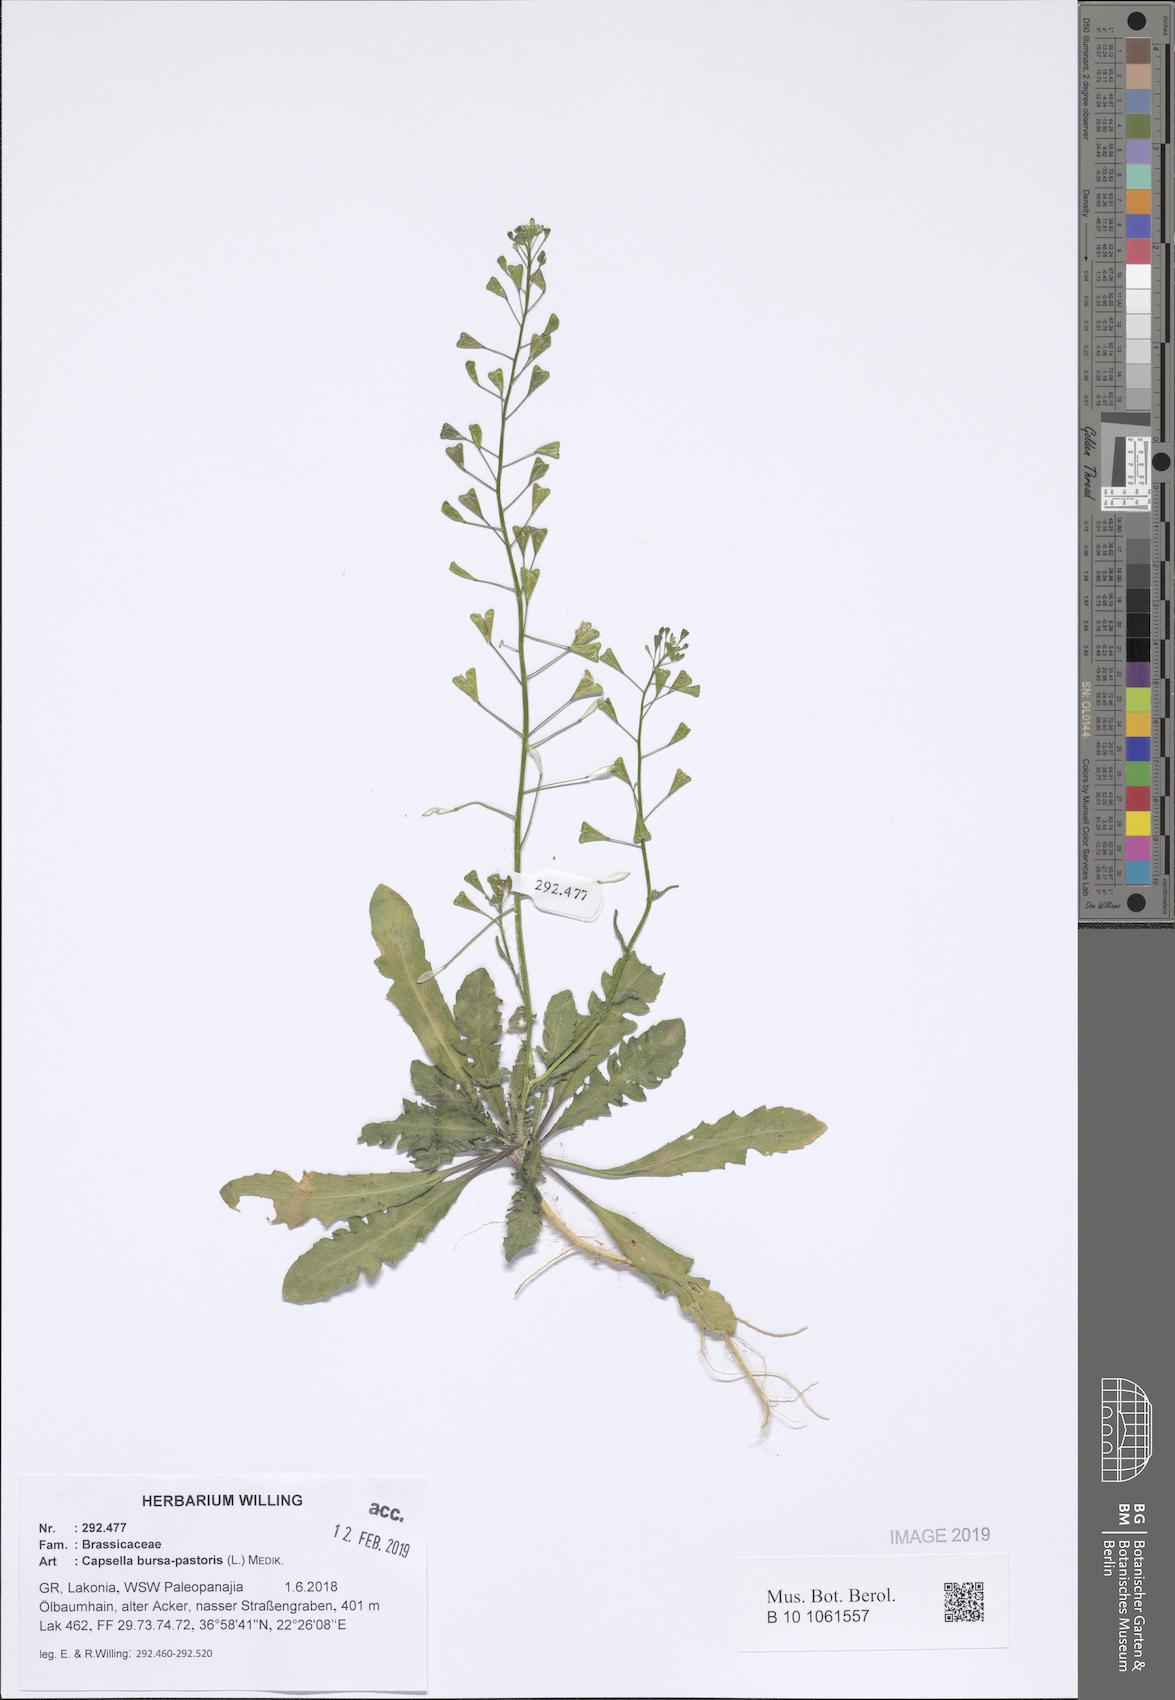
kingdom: Plantae
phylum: Tracheophyta
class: Magnoliopsida
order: Brassicales
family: Brassicaceae
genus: Capsella
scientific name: Capsella bursa-pastoris
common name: Shepherd's purse
